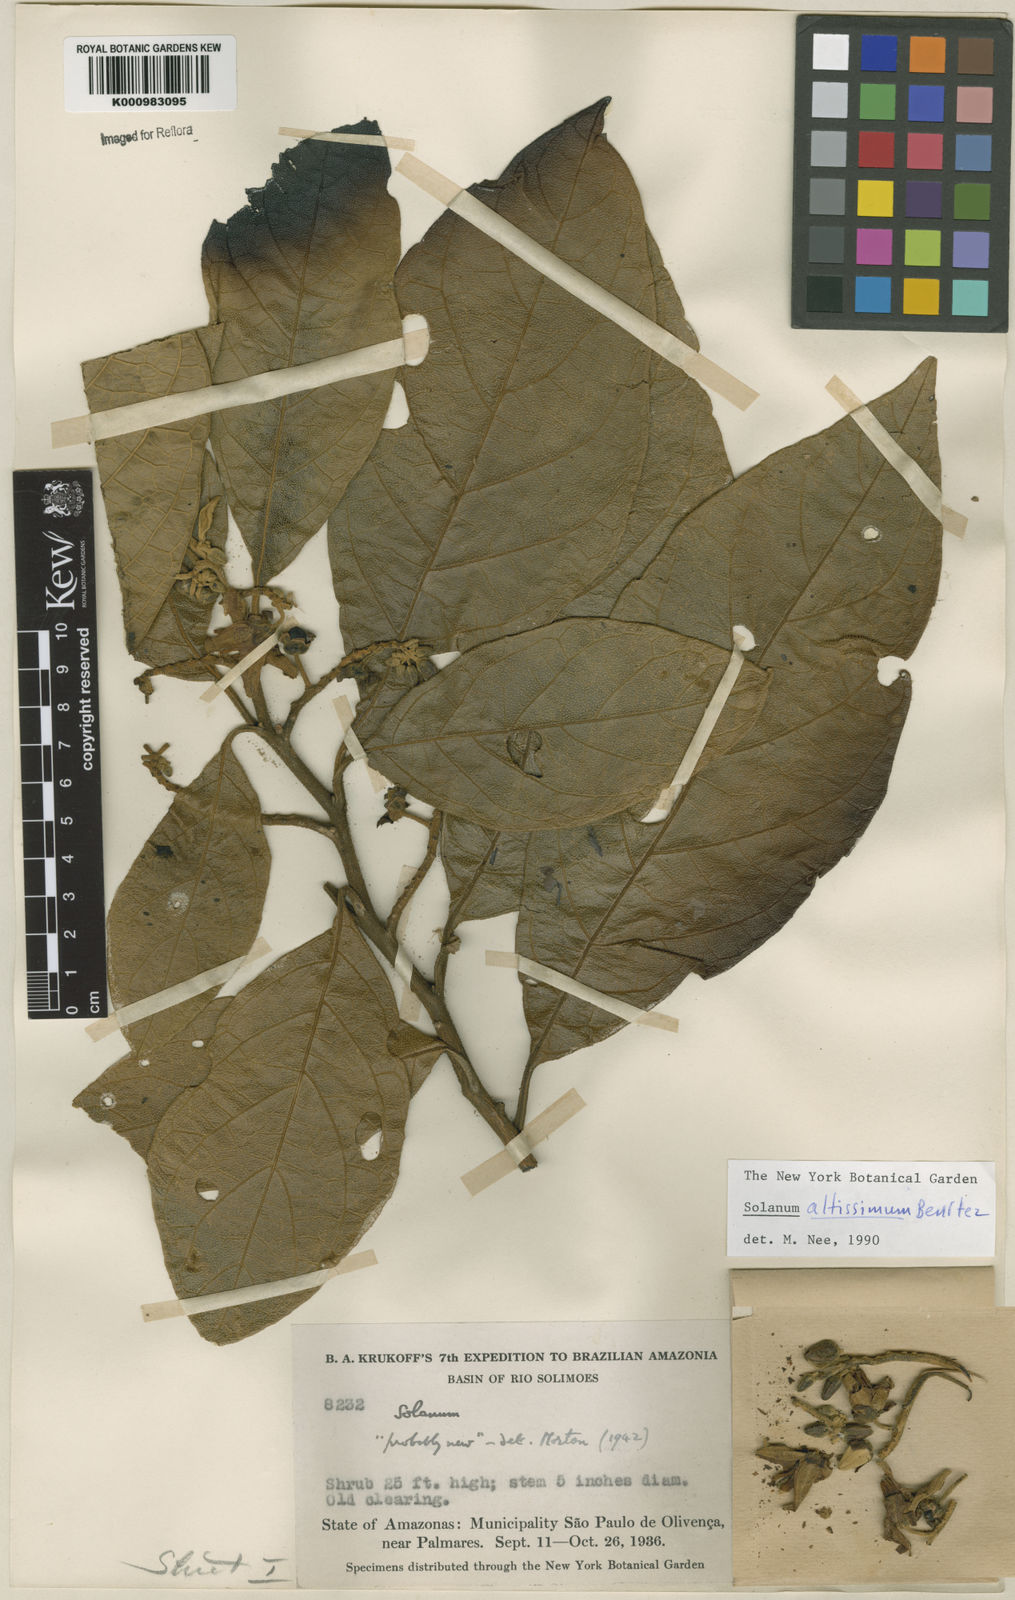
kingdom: Plantae
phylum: Tracheophyta
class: Magnoliopsida
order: Solanales
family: Solanaceae
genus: Solanum
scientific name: Solanum kioniotrichum
